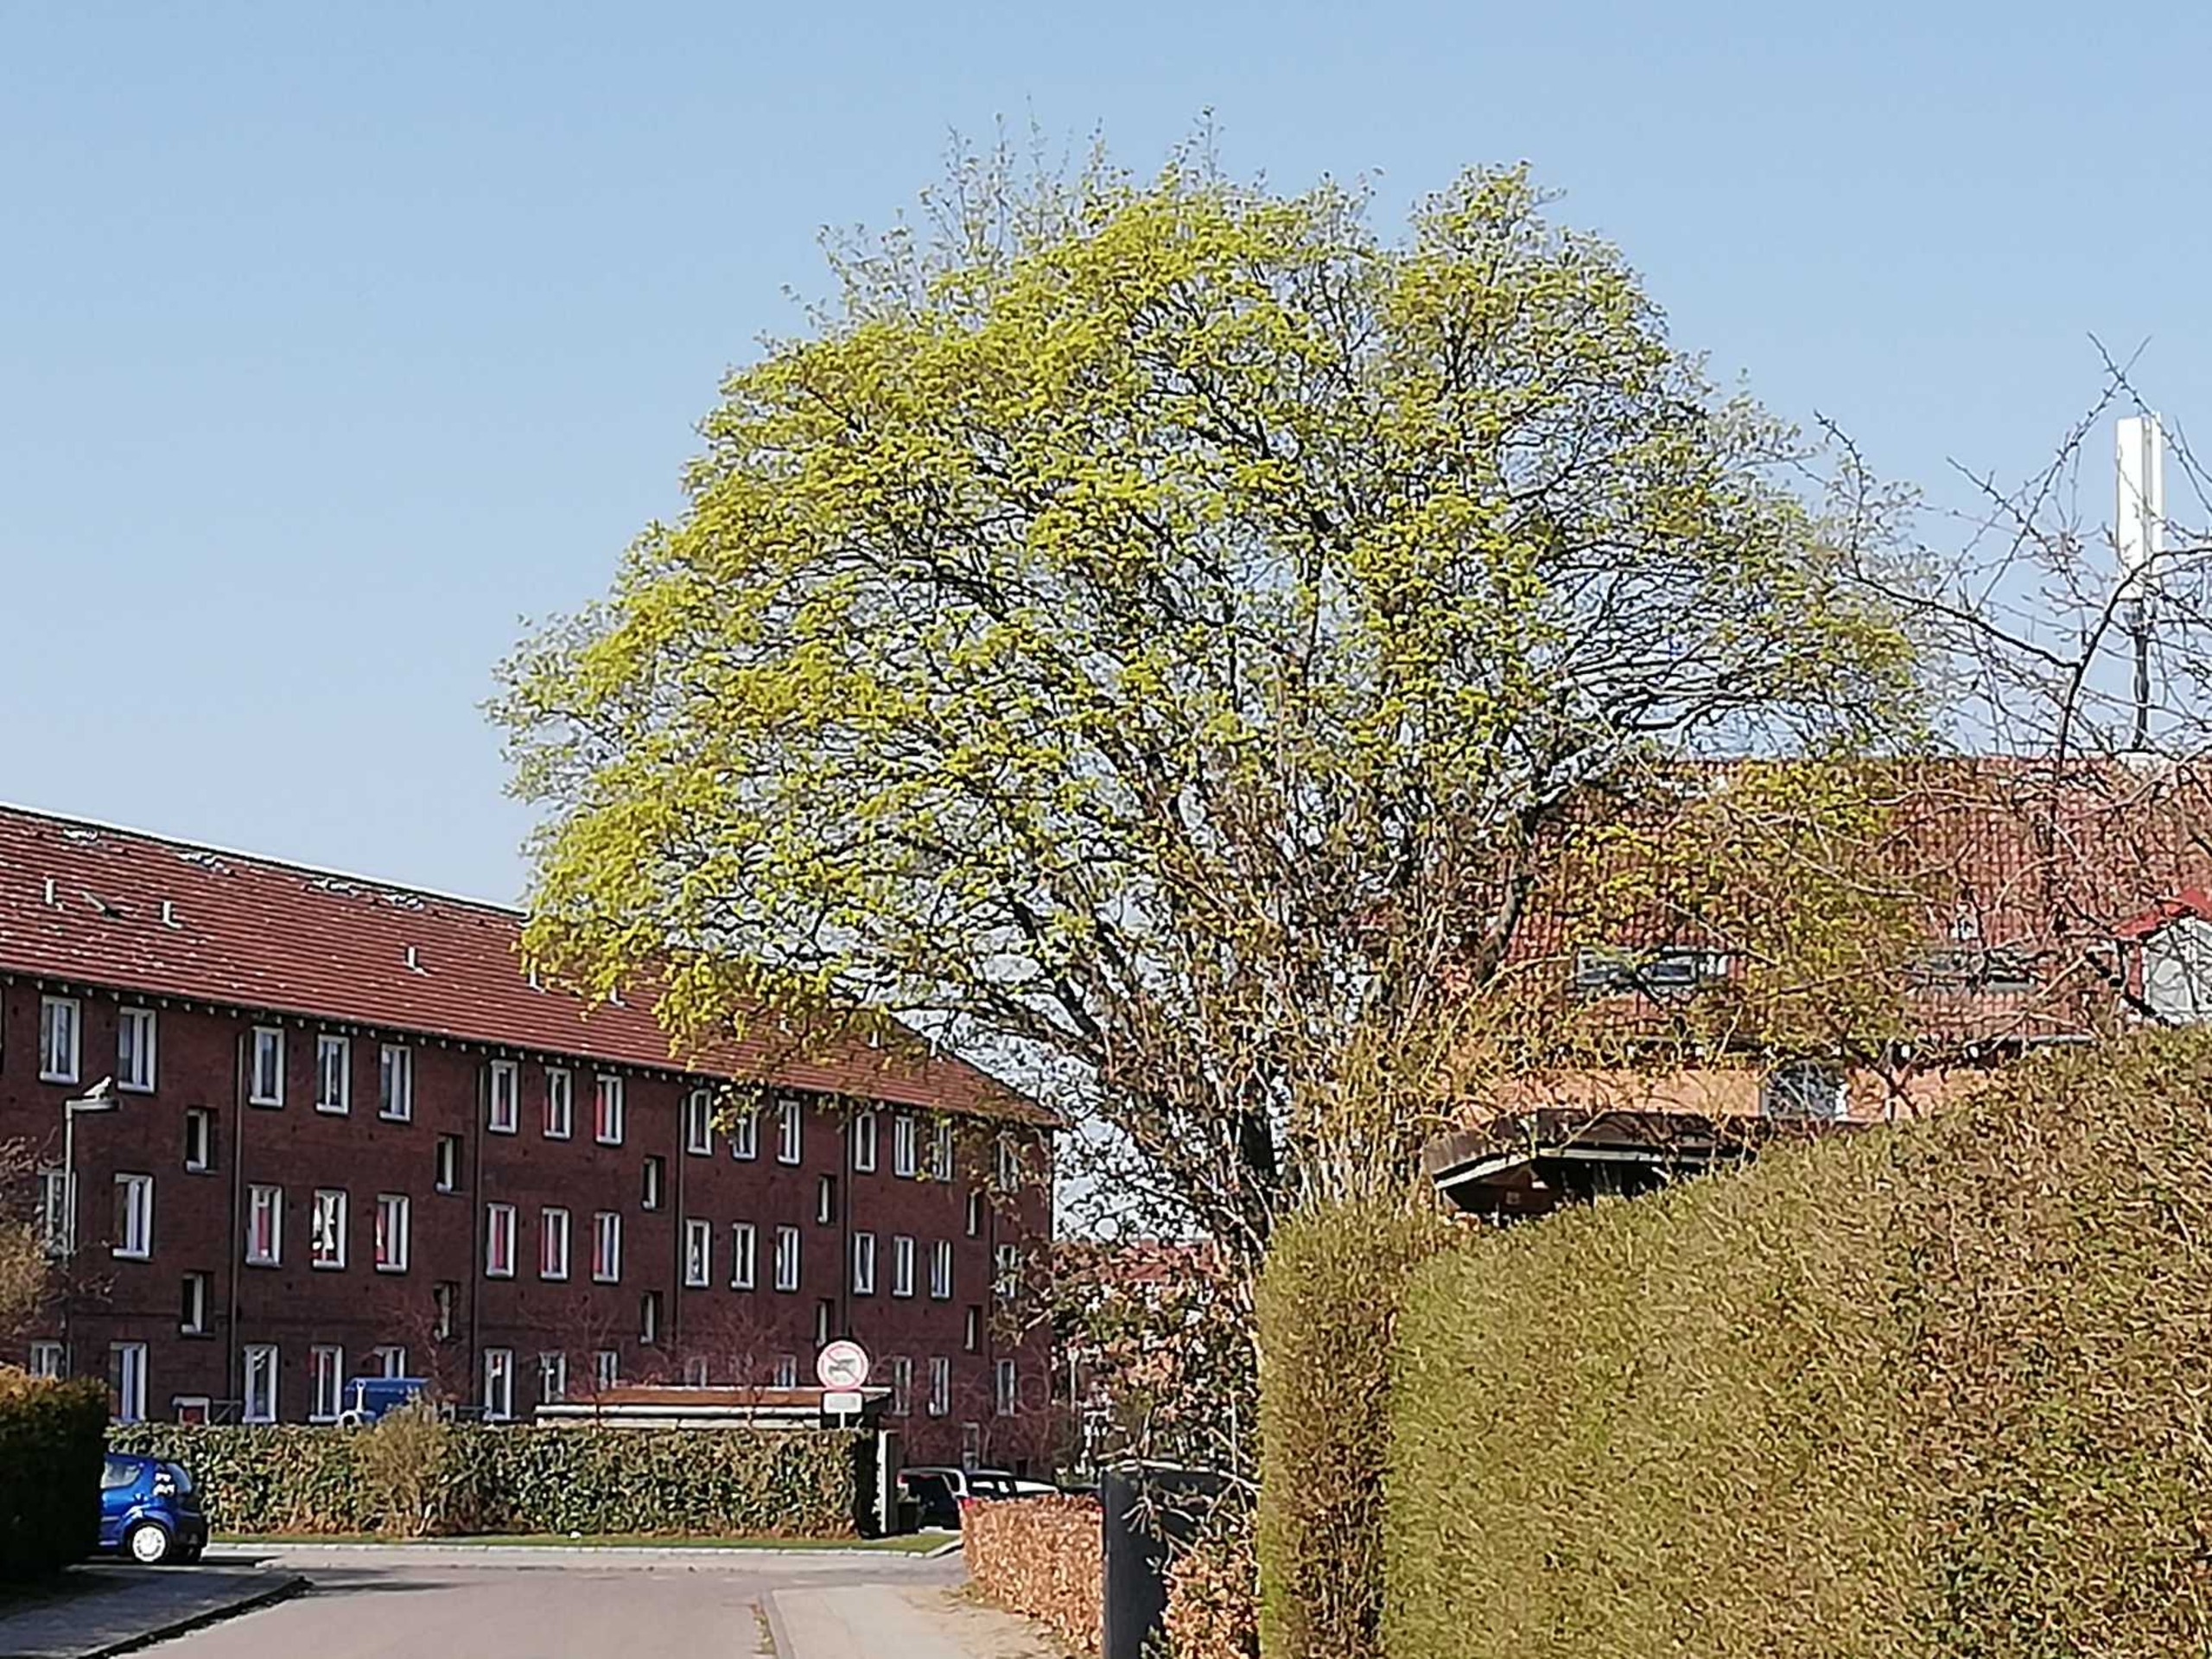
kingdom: Plantae
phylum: Tracheophyta
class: Magnoliopsida
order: Santalales
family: Viscaceae
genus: Viscum
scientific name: Viscum album
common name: Mistelten
